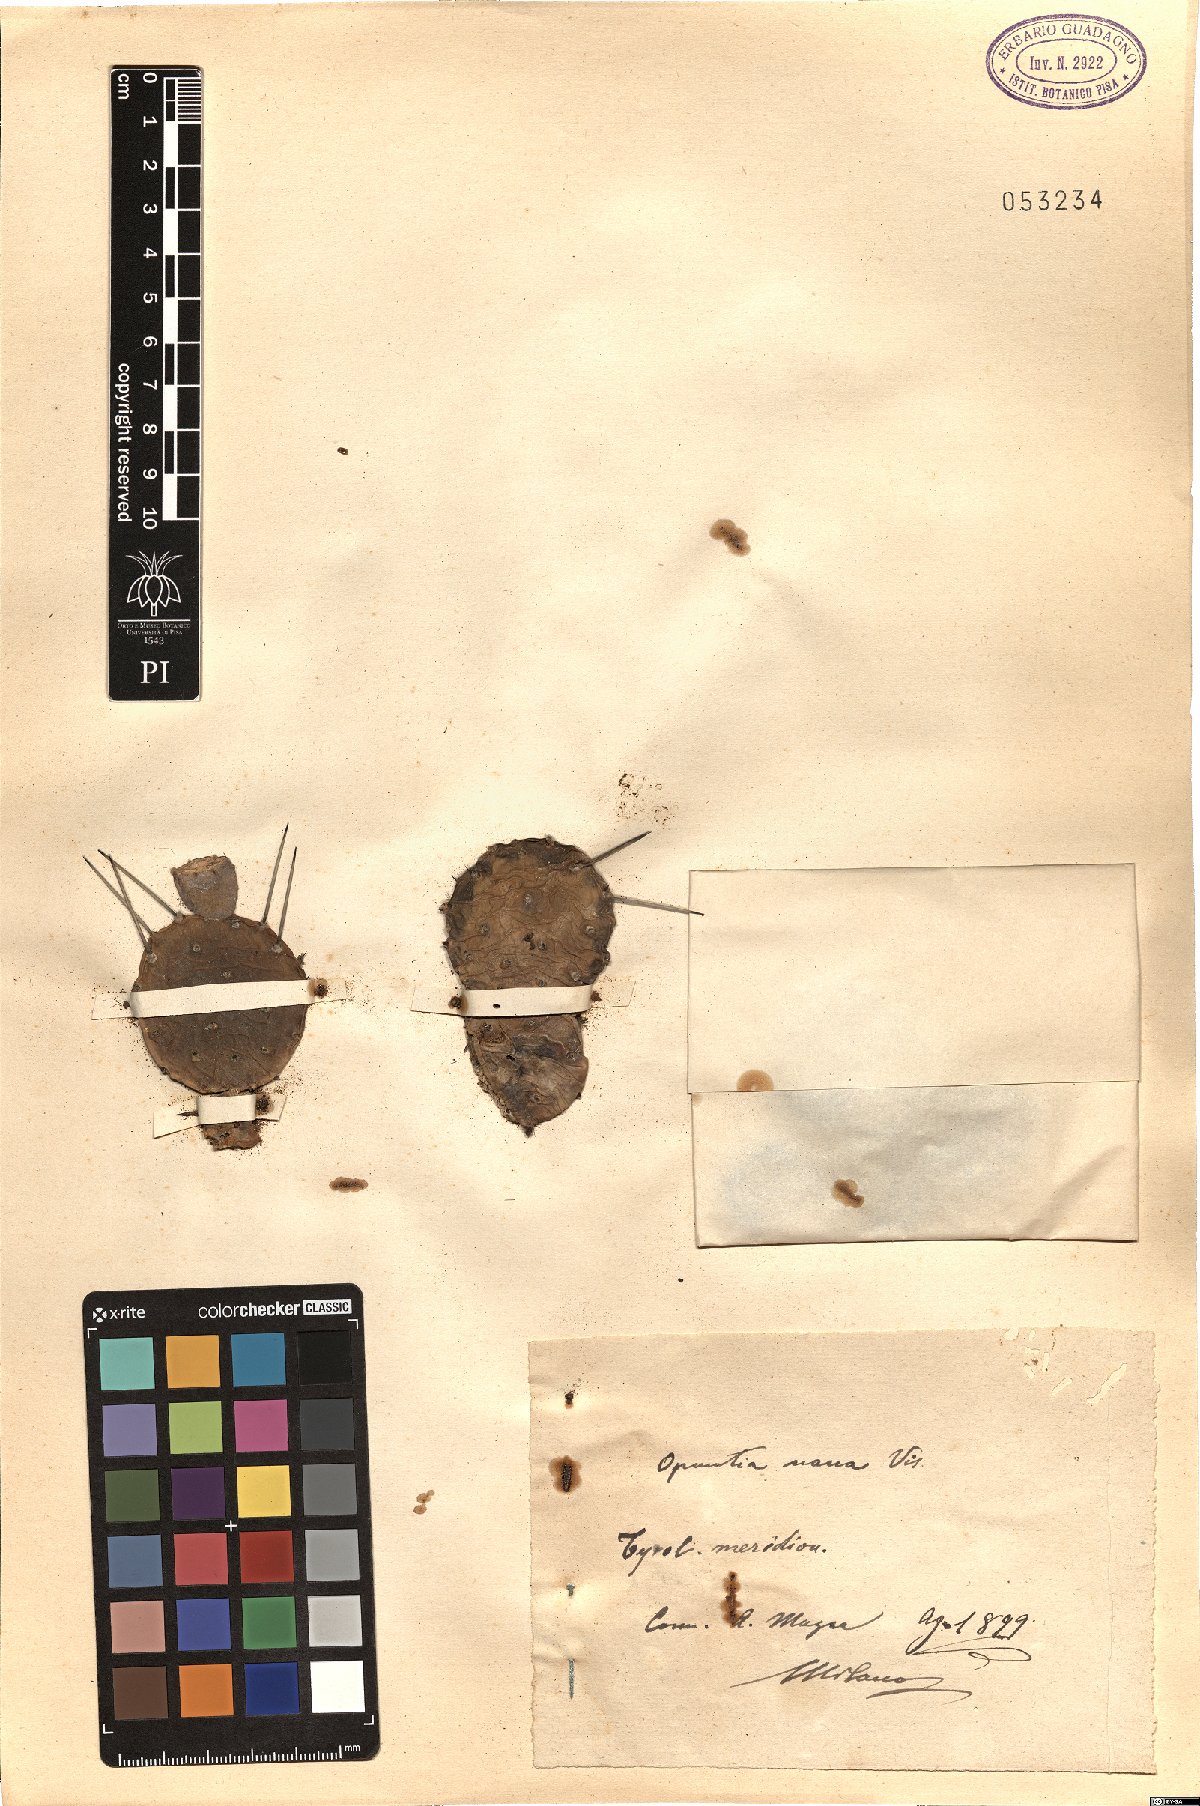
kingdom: Plantae
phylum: Tracheophyta
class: Magnoliopsida
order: Caryophyllales
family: Cactaceae
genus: Opuntia
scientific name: Opuntia pubescens
